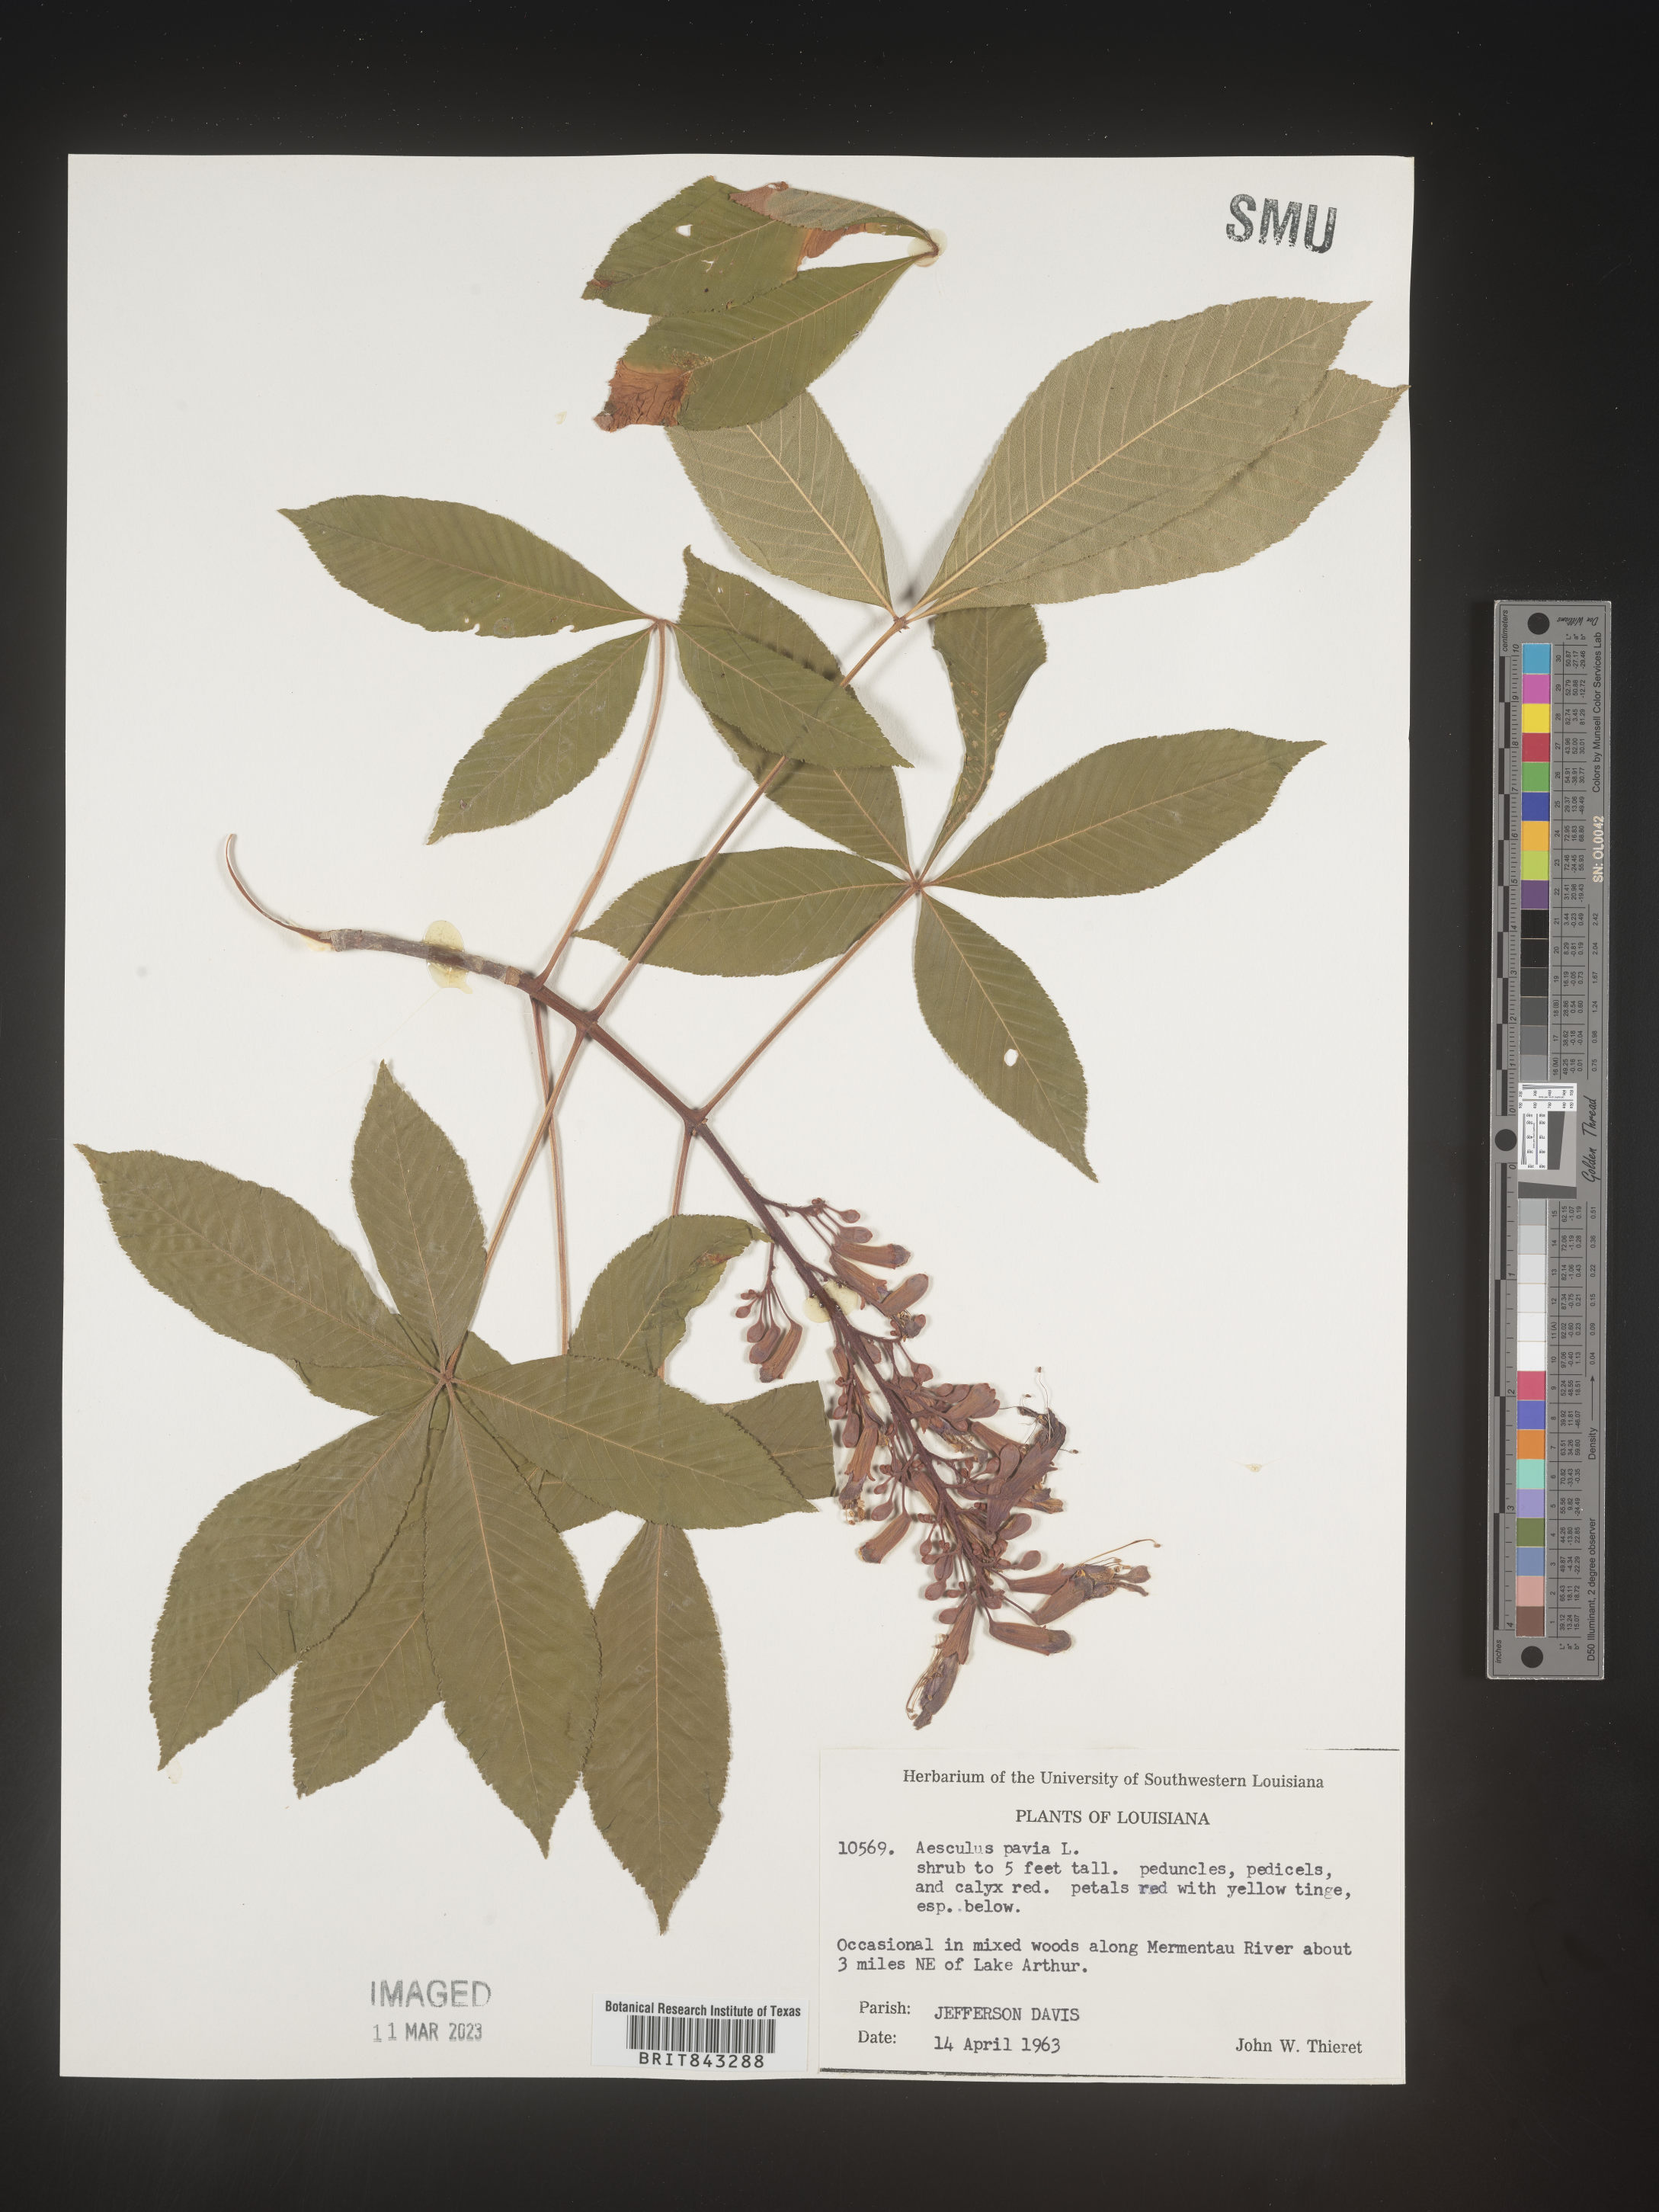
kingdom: Plantae
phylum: Tracheophyta
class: Magnoliopsida
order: Sapindales
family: Sapindaceae
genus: Aesculus
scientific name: Aesculus pavia
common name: Red buckeye
